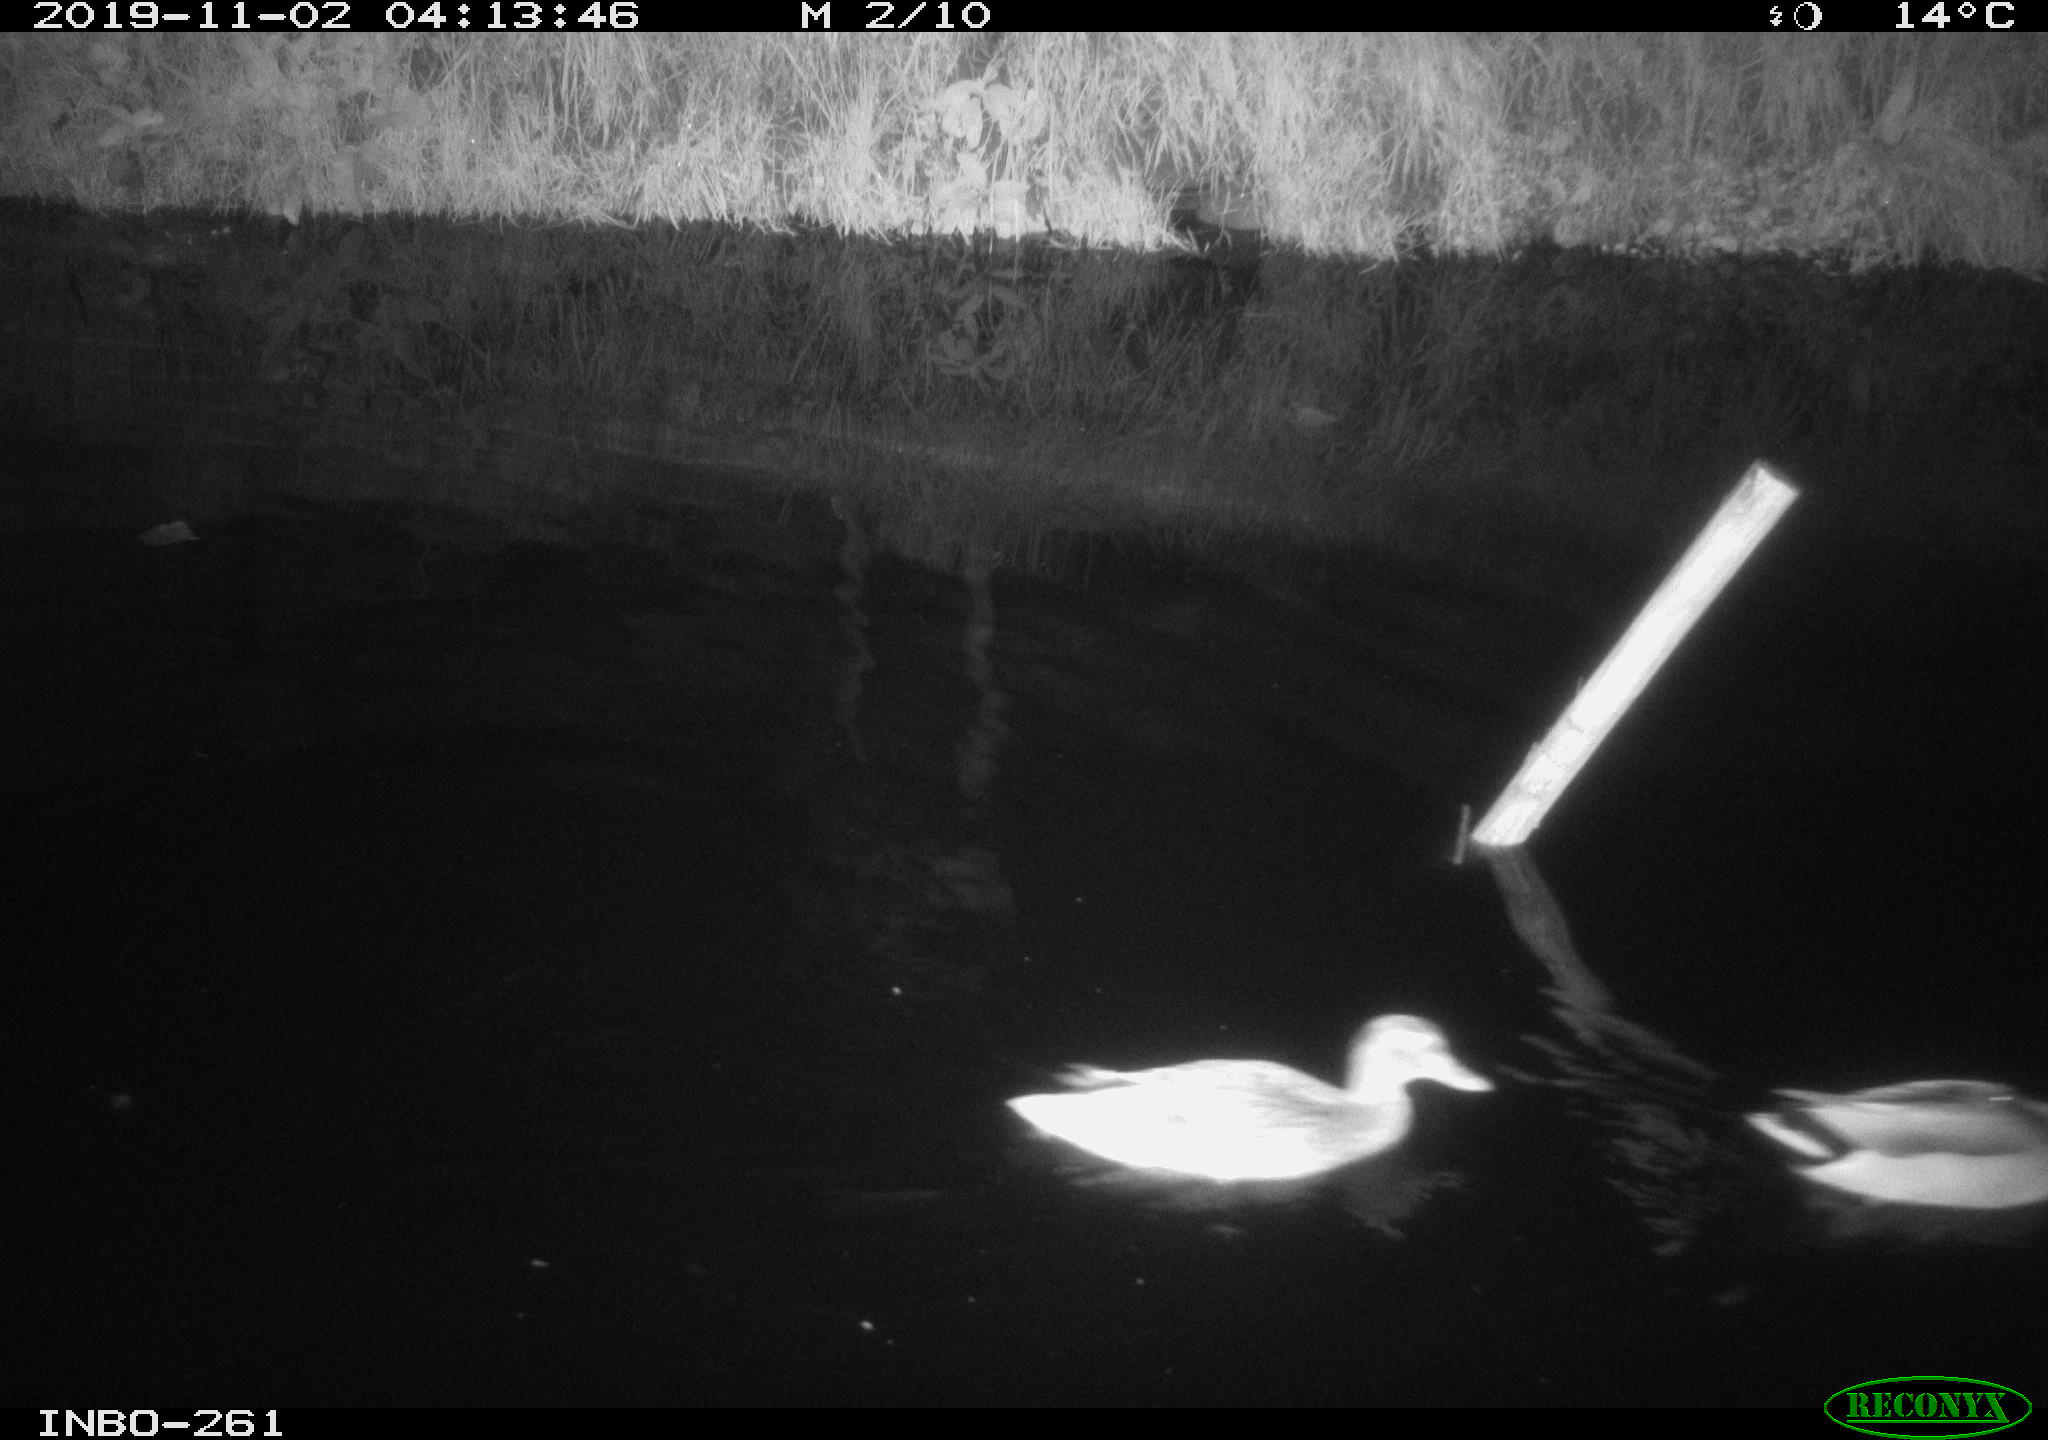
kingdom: Animalia
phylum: Chordata
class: Aves
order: Anseriformes
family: Anatidae
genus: Anas
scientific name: Anas platyrhynchos
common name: Mallard
